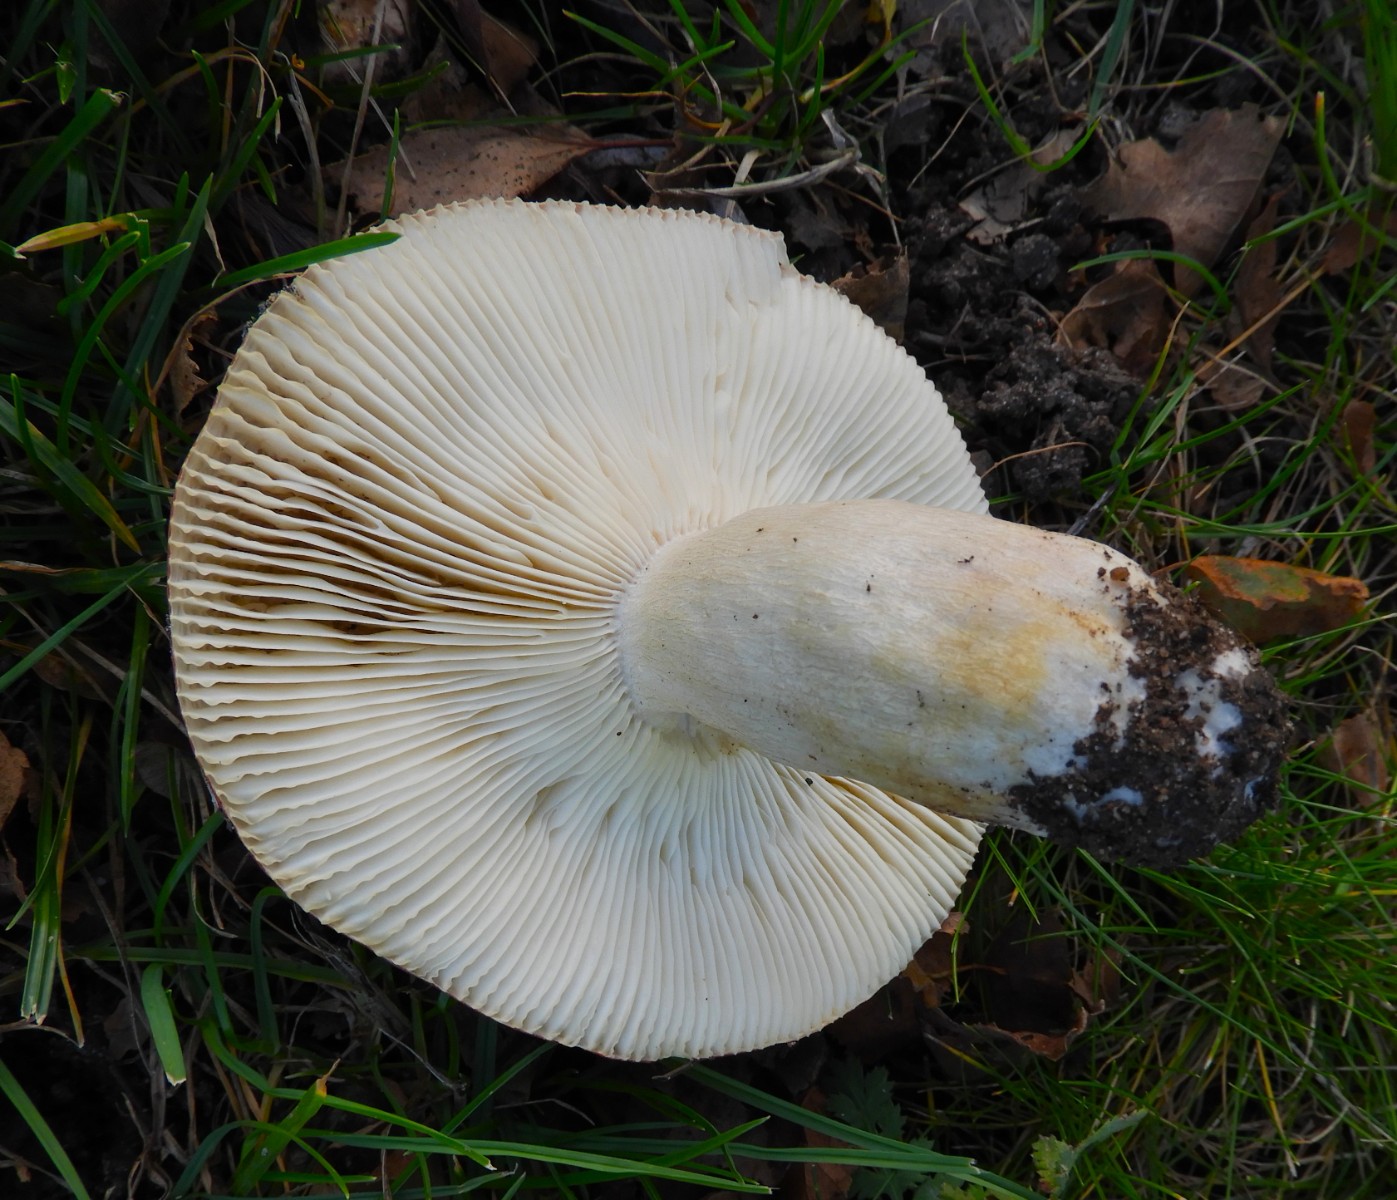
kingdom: Fungi
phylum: Basidiomycota
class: Agaricomycetes
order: Russulales
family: Russulaceae
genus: Russula
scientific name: Russula depallens
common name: falmende skørhat
